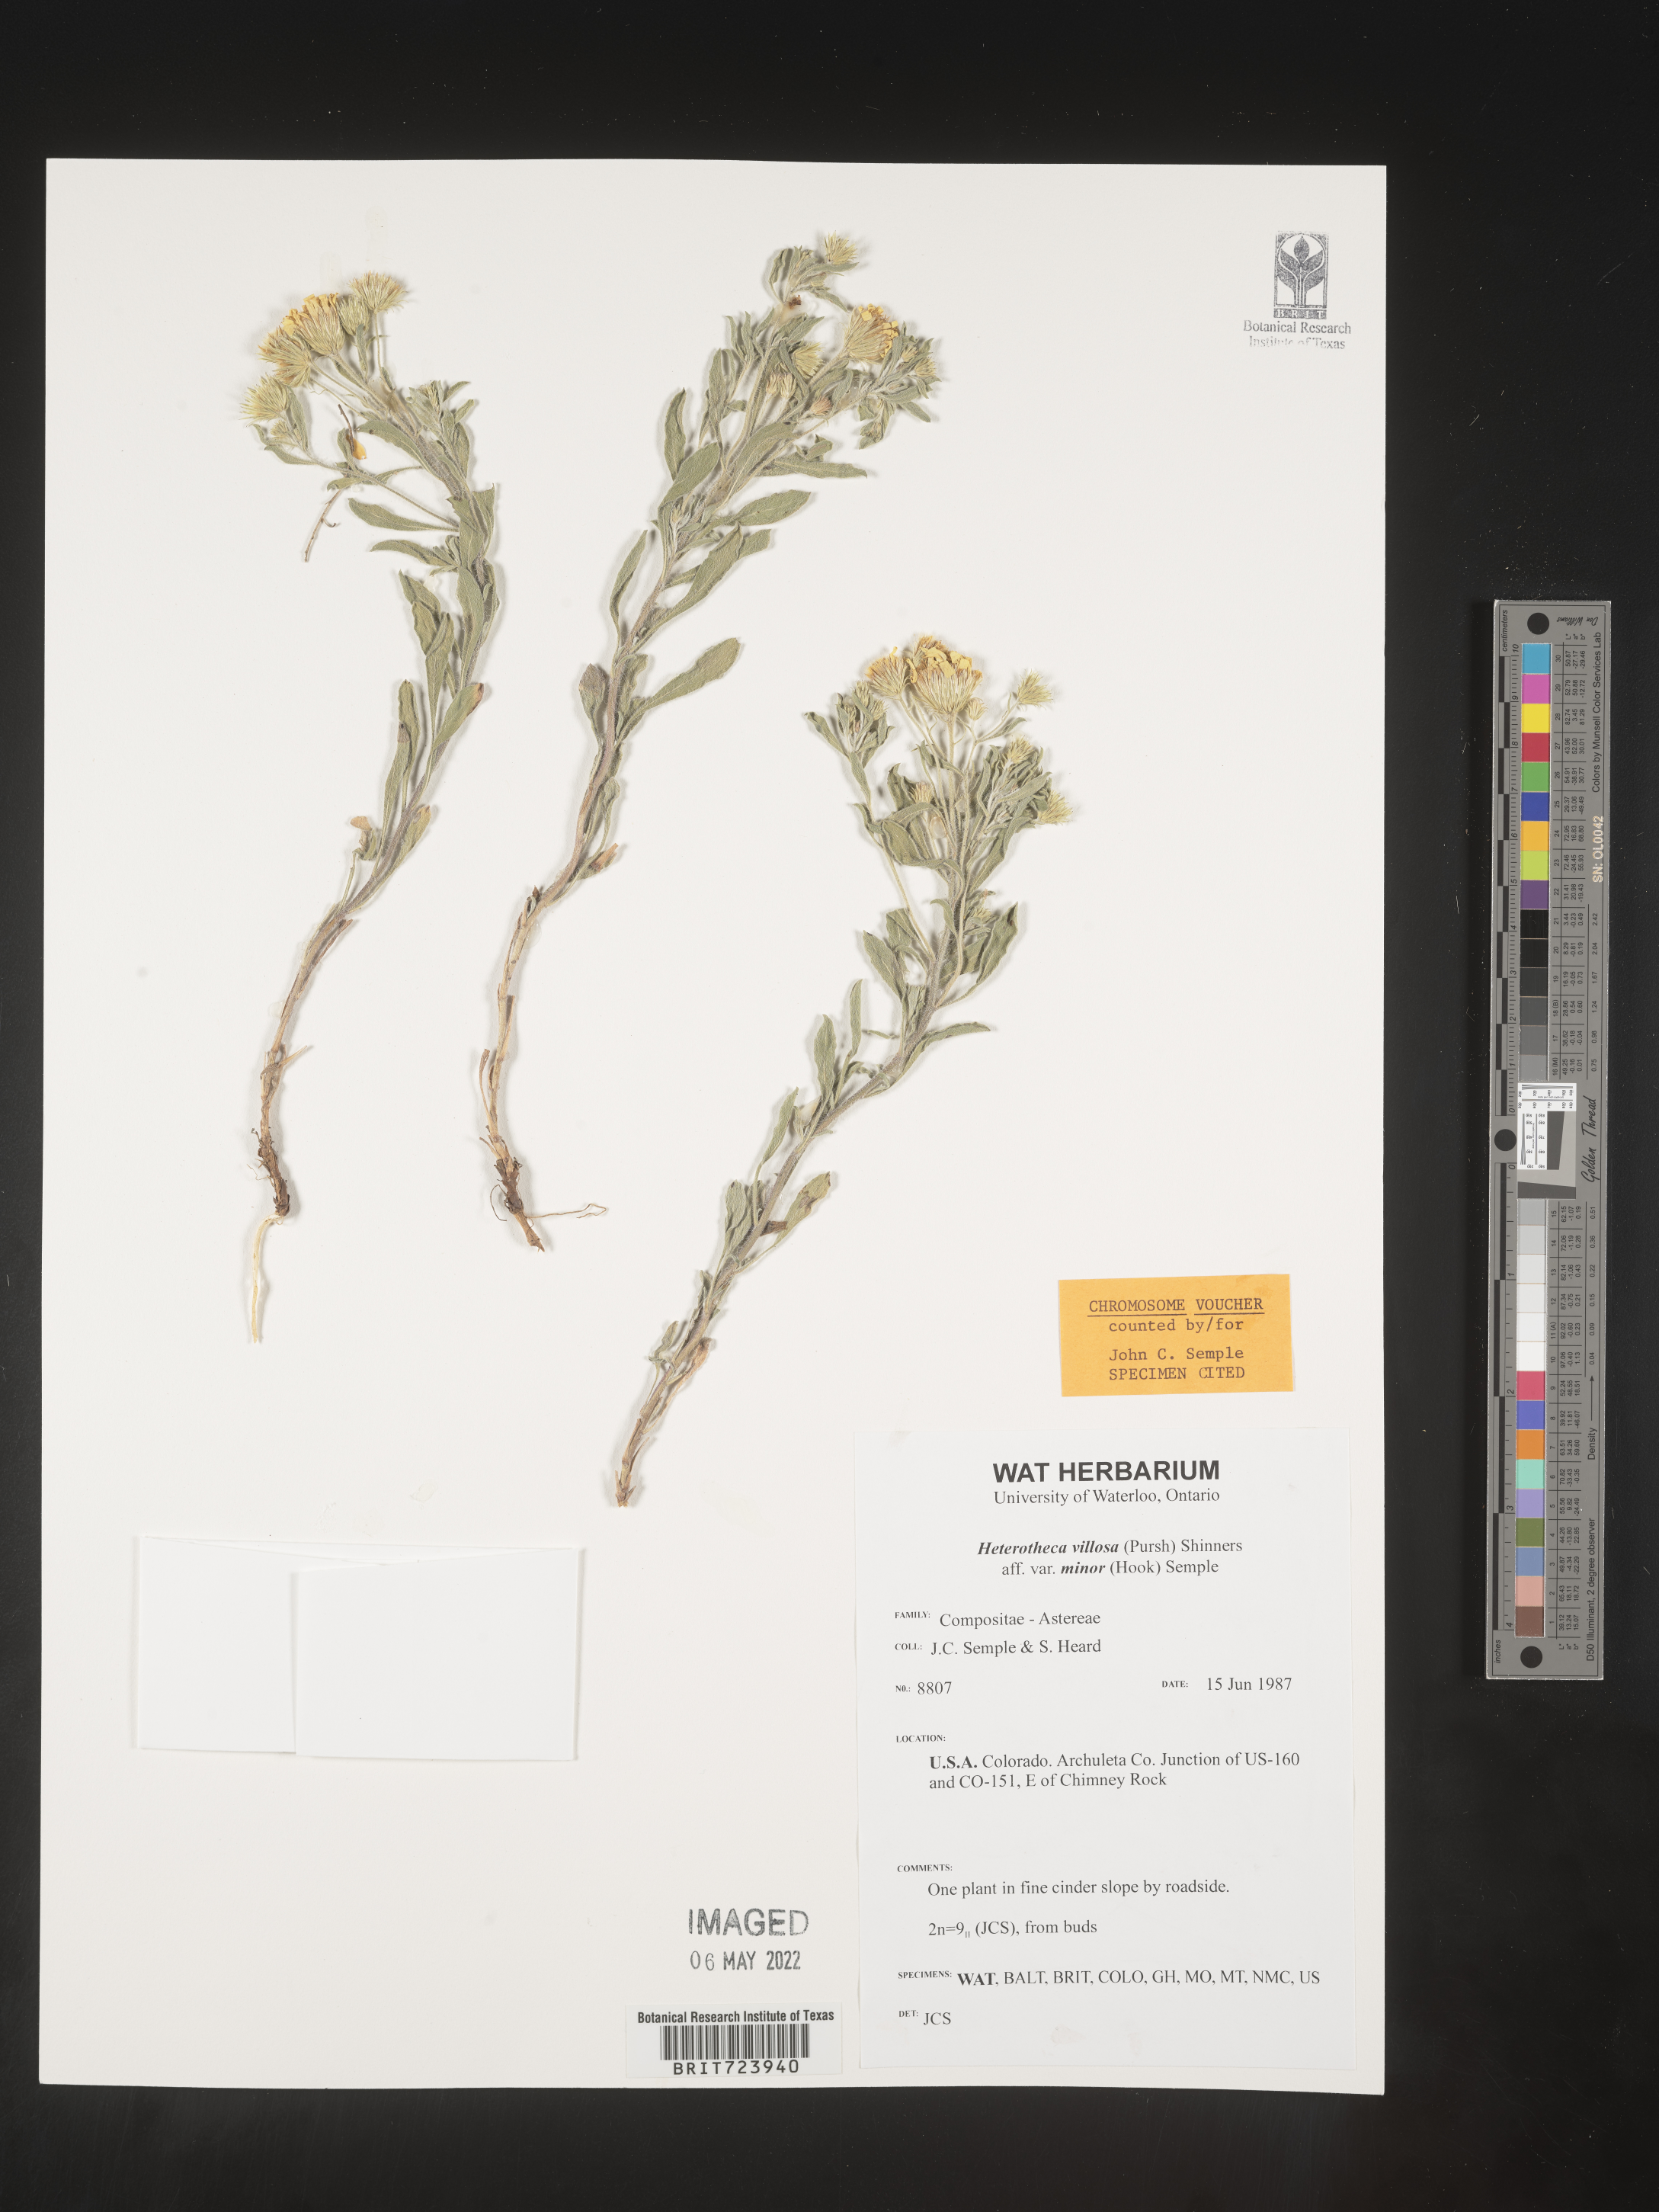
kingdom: Plantae
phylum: Tracheophyta
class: Magnoliopsida
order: Asterales
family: Asteraceae
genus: Heterotheca
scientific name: Heterotheca pedunculata
